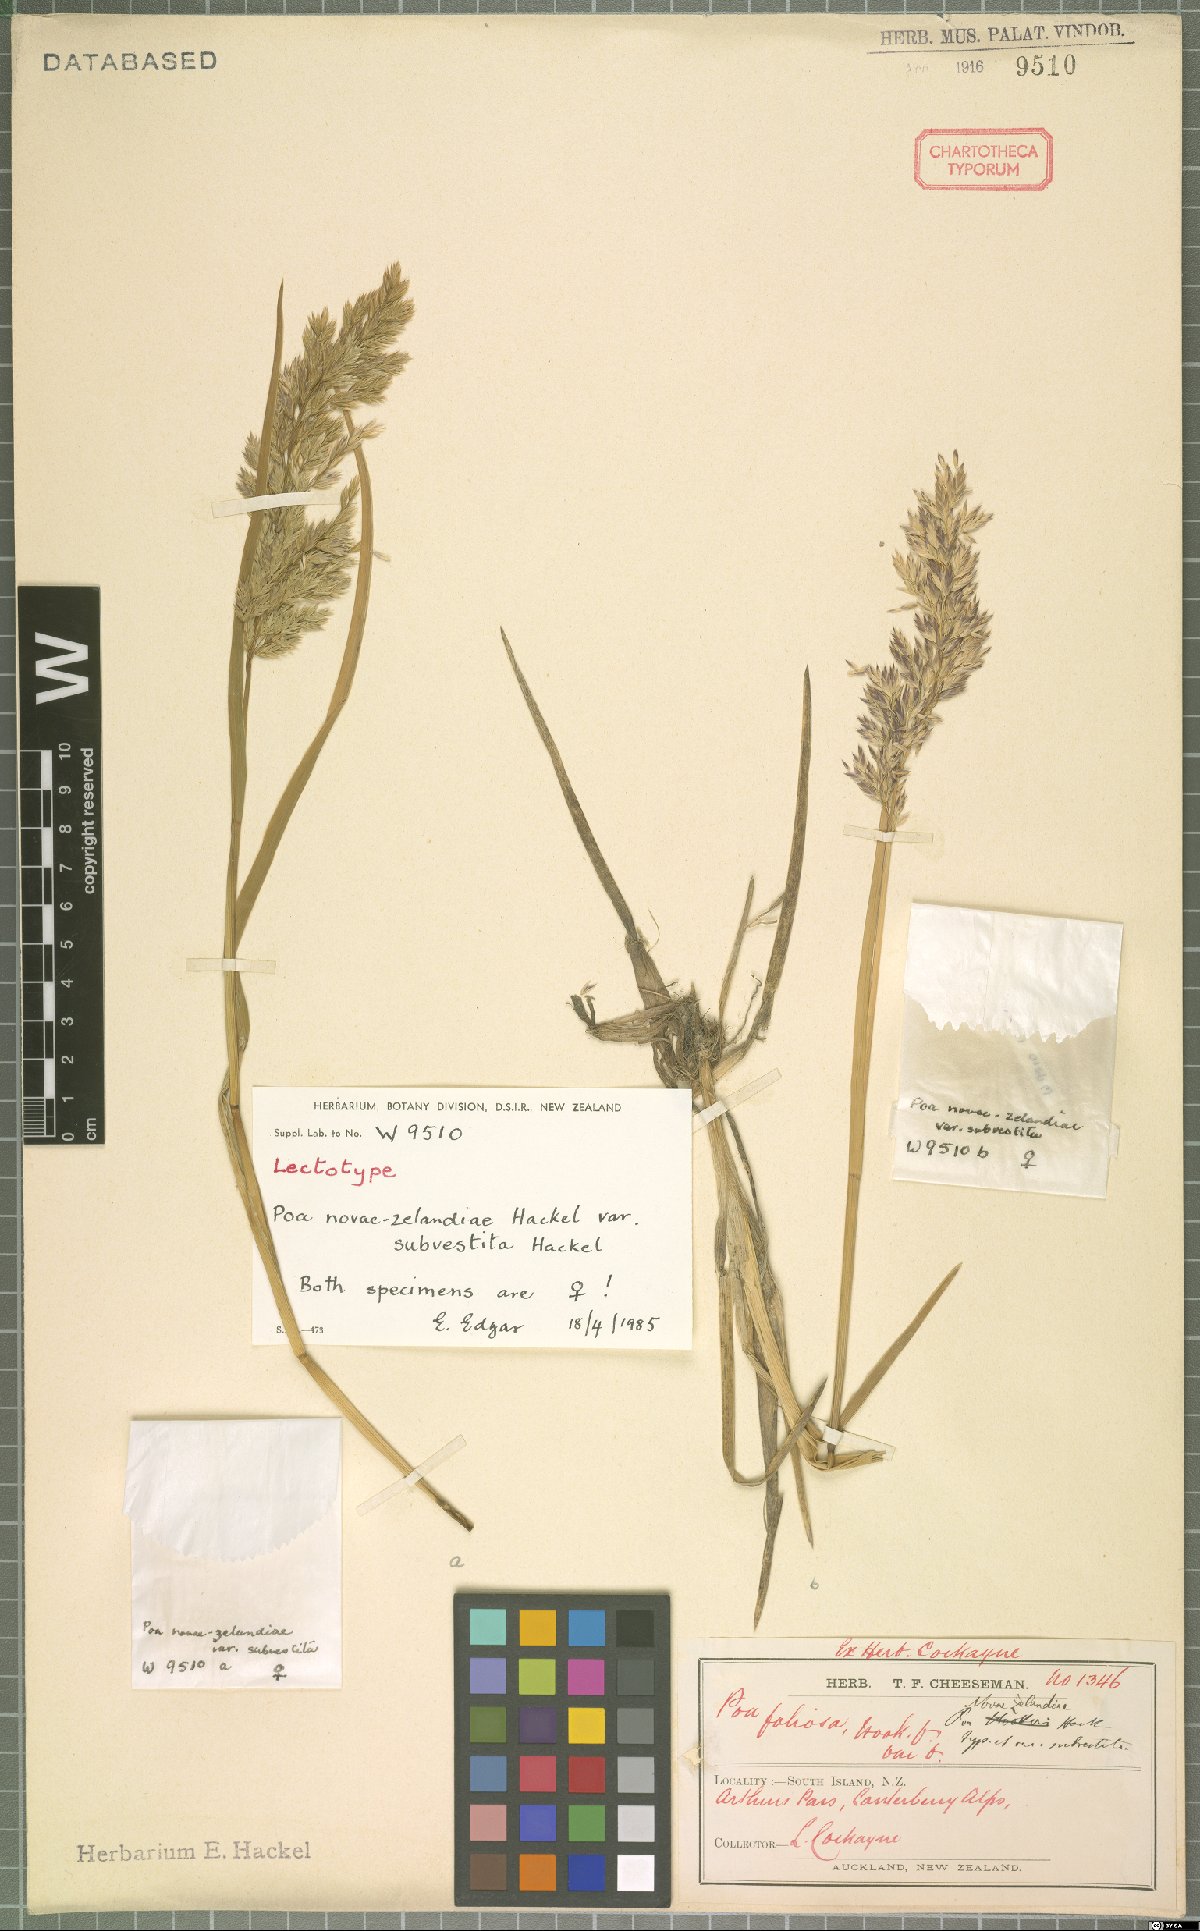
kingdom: Plantae
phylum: Tracheophyta
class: Liliopsida
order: Poales
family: Poaceae
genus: Poa
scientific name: Poa novae-zelandiae
